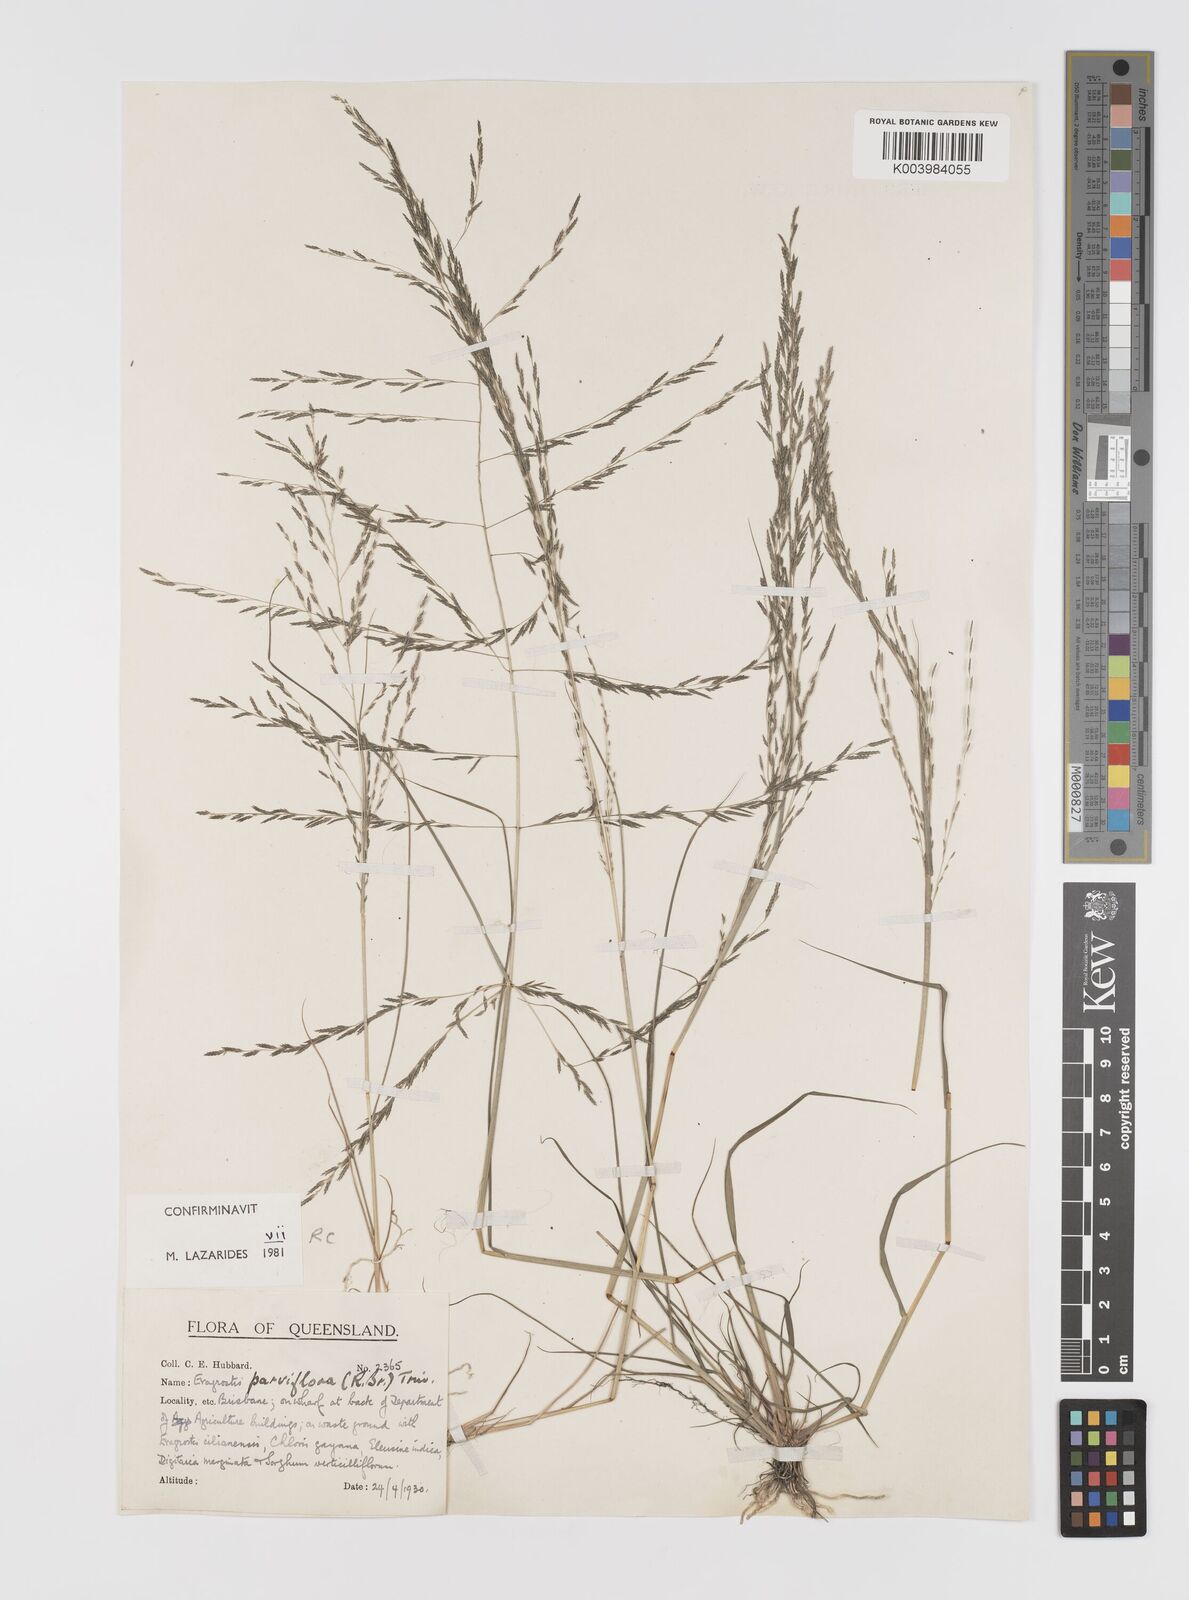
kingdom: Plantae
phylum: Tracheophyta
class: Liliopsida
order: Poales
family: Poaceae
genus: Eragrostis
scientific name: Eragrostis parviflora
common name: Weeping love-grass
